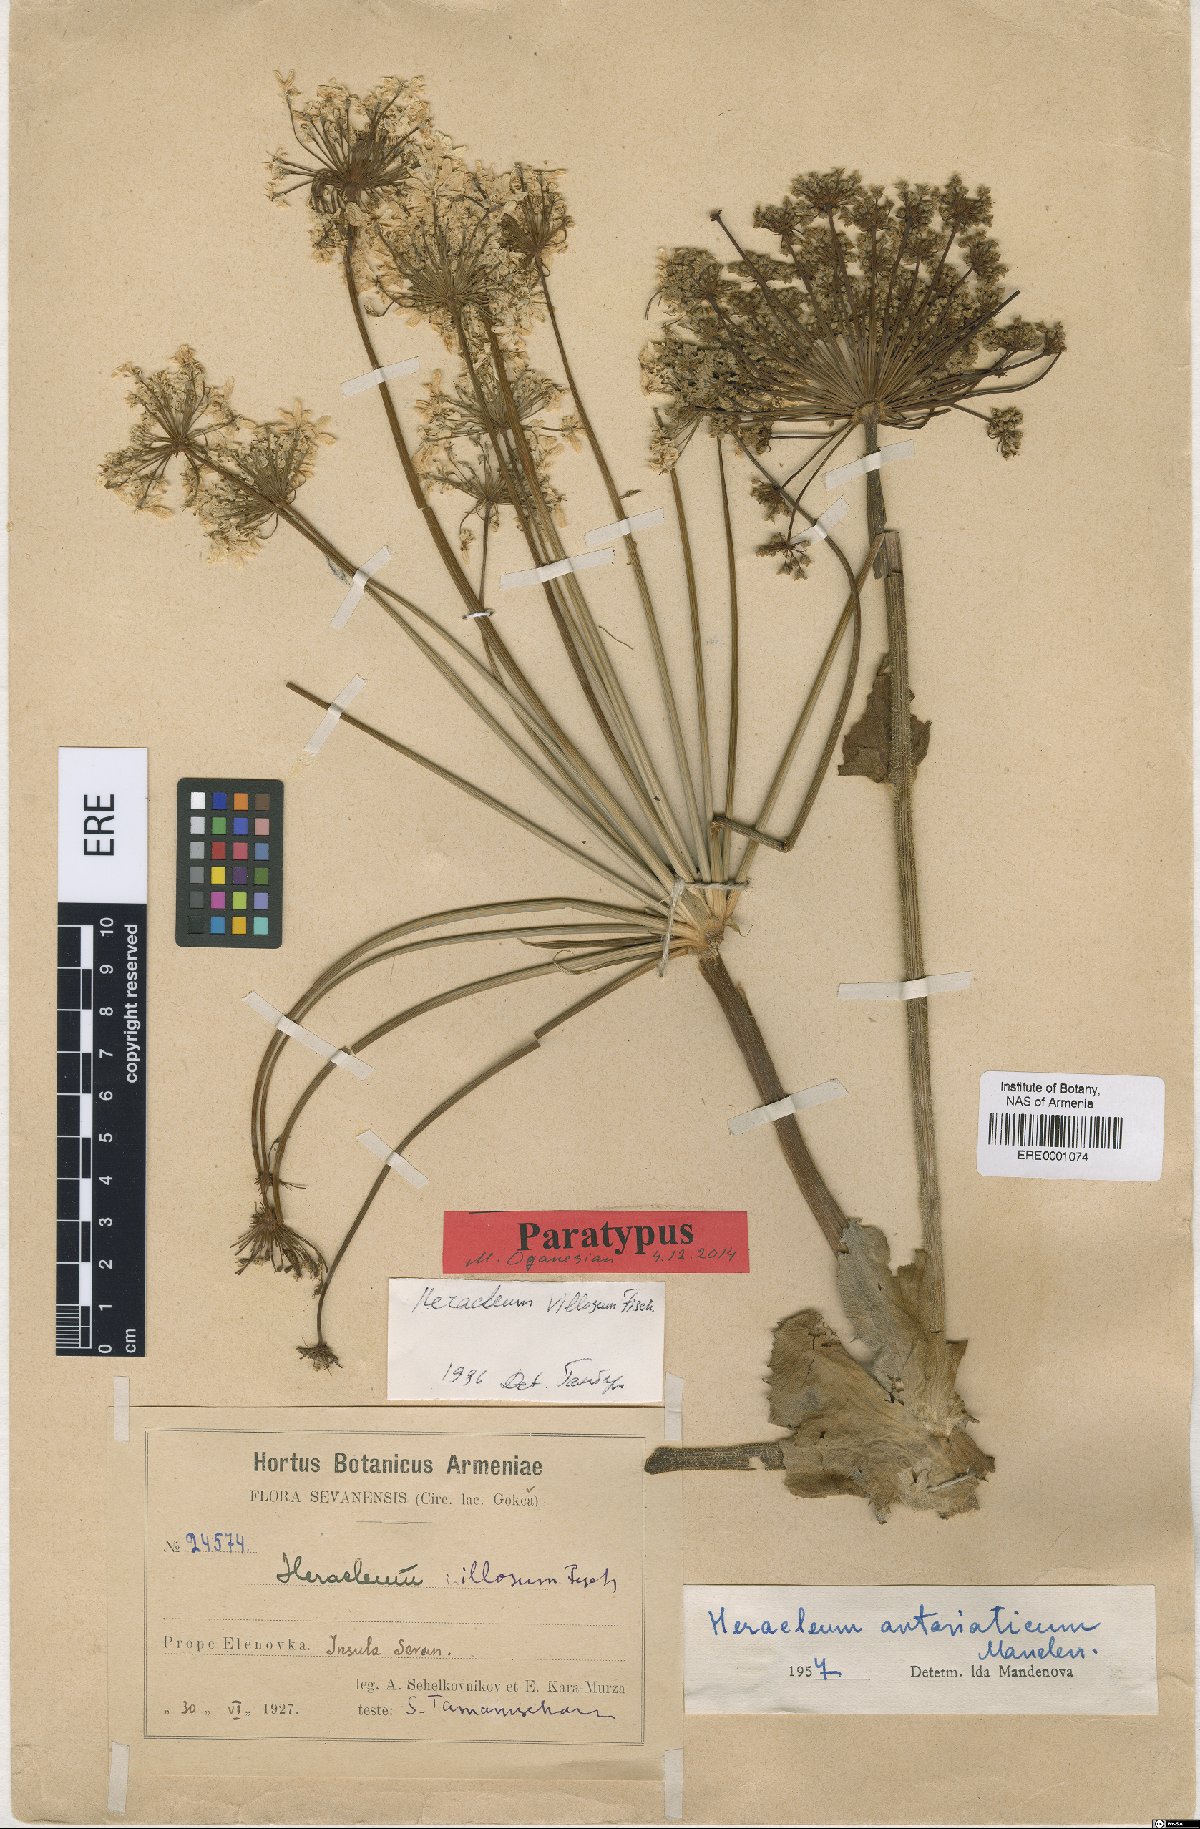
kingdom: Plantae
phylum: Tracheophyta
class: Magnoliopsida
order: Apiales
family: Apiaceae
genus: Heracleum
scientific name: Heracleum antasiaticum
